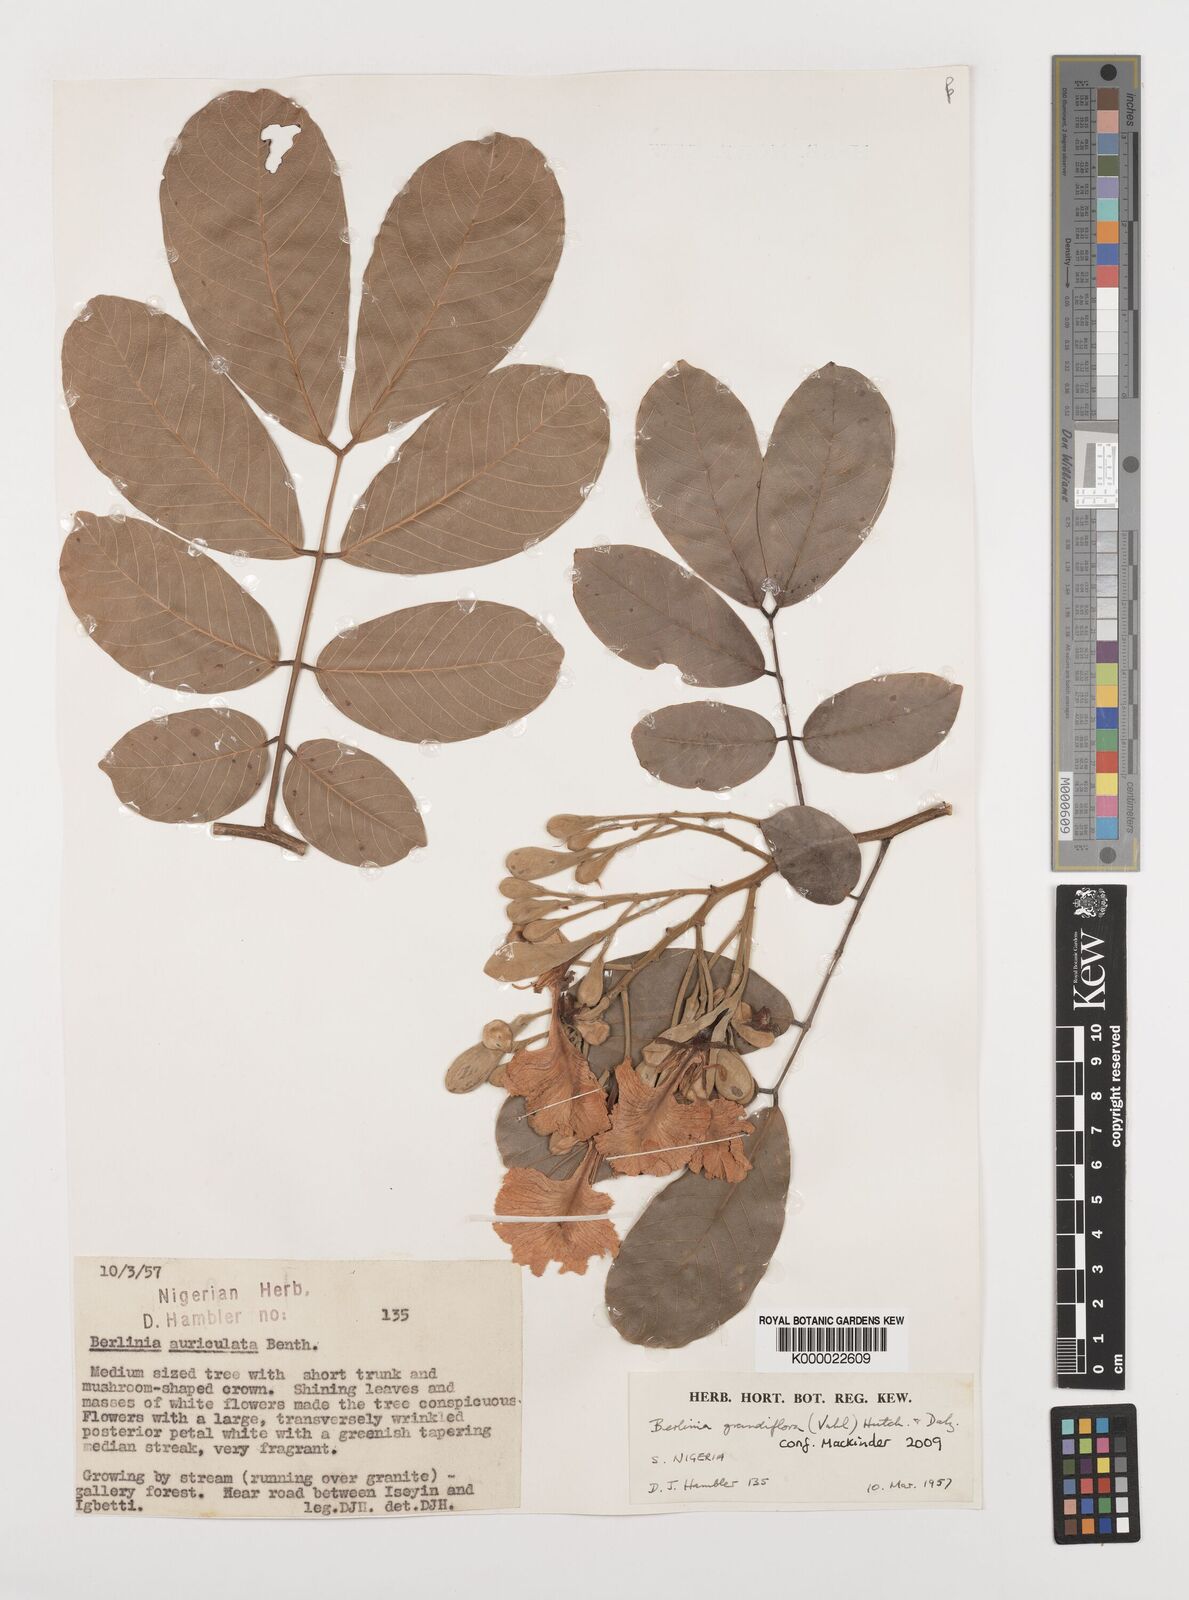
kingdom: Plantae
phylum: Tracheophyta
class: Magnoliopsida
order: Fabales
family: Fabaceae
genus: Berlinia
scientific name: Berlinia grandiflora
